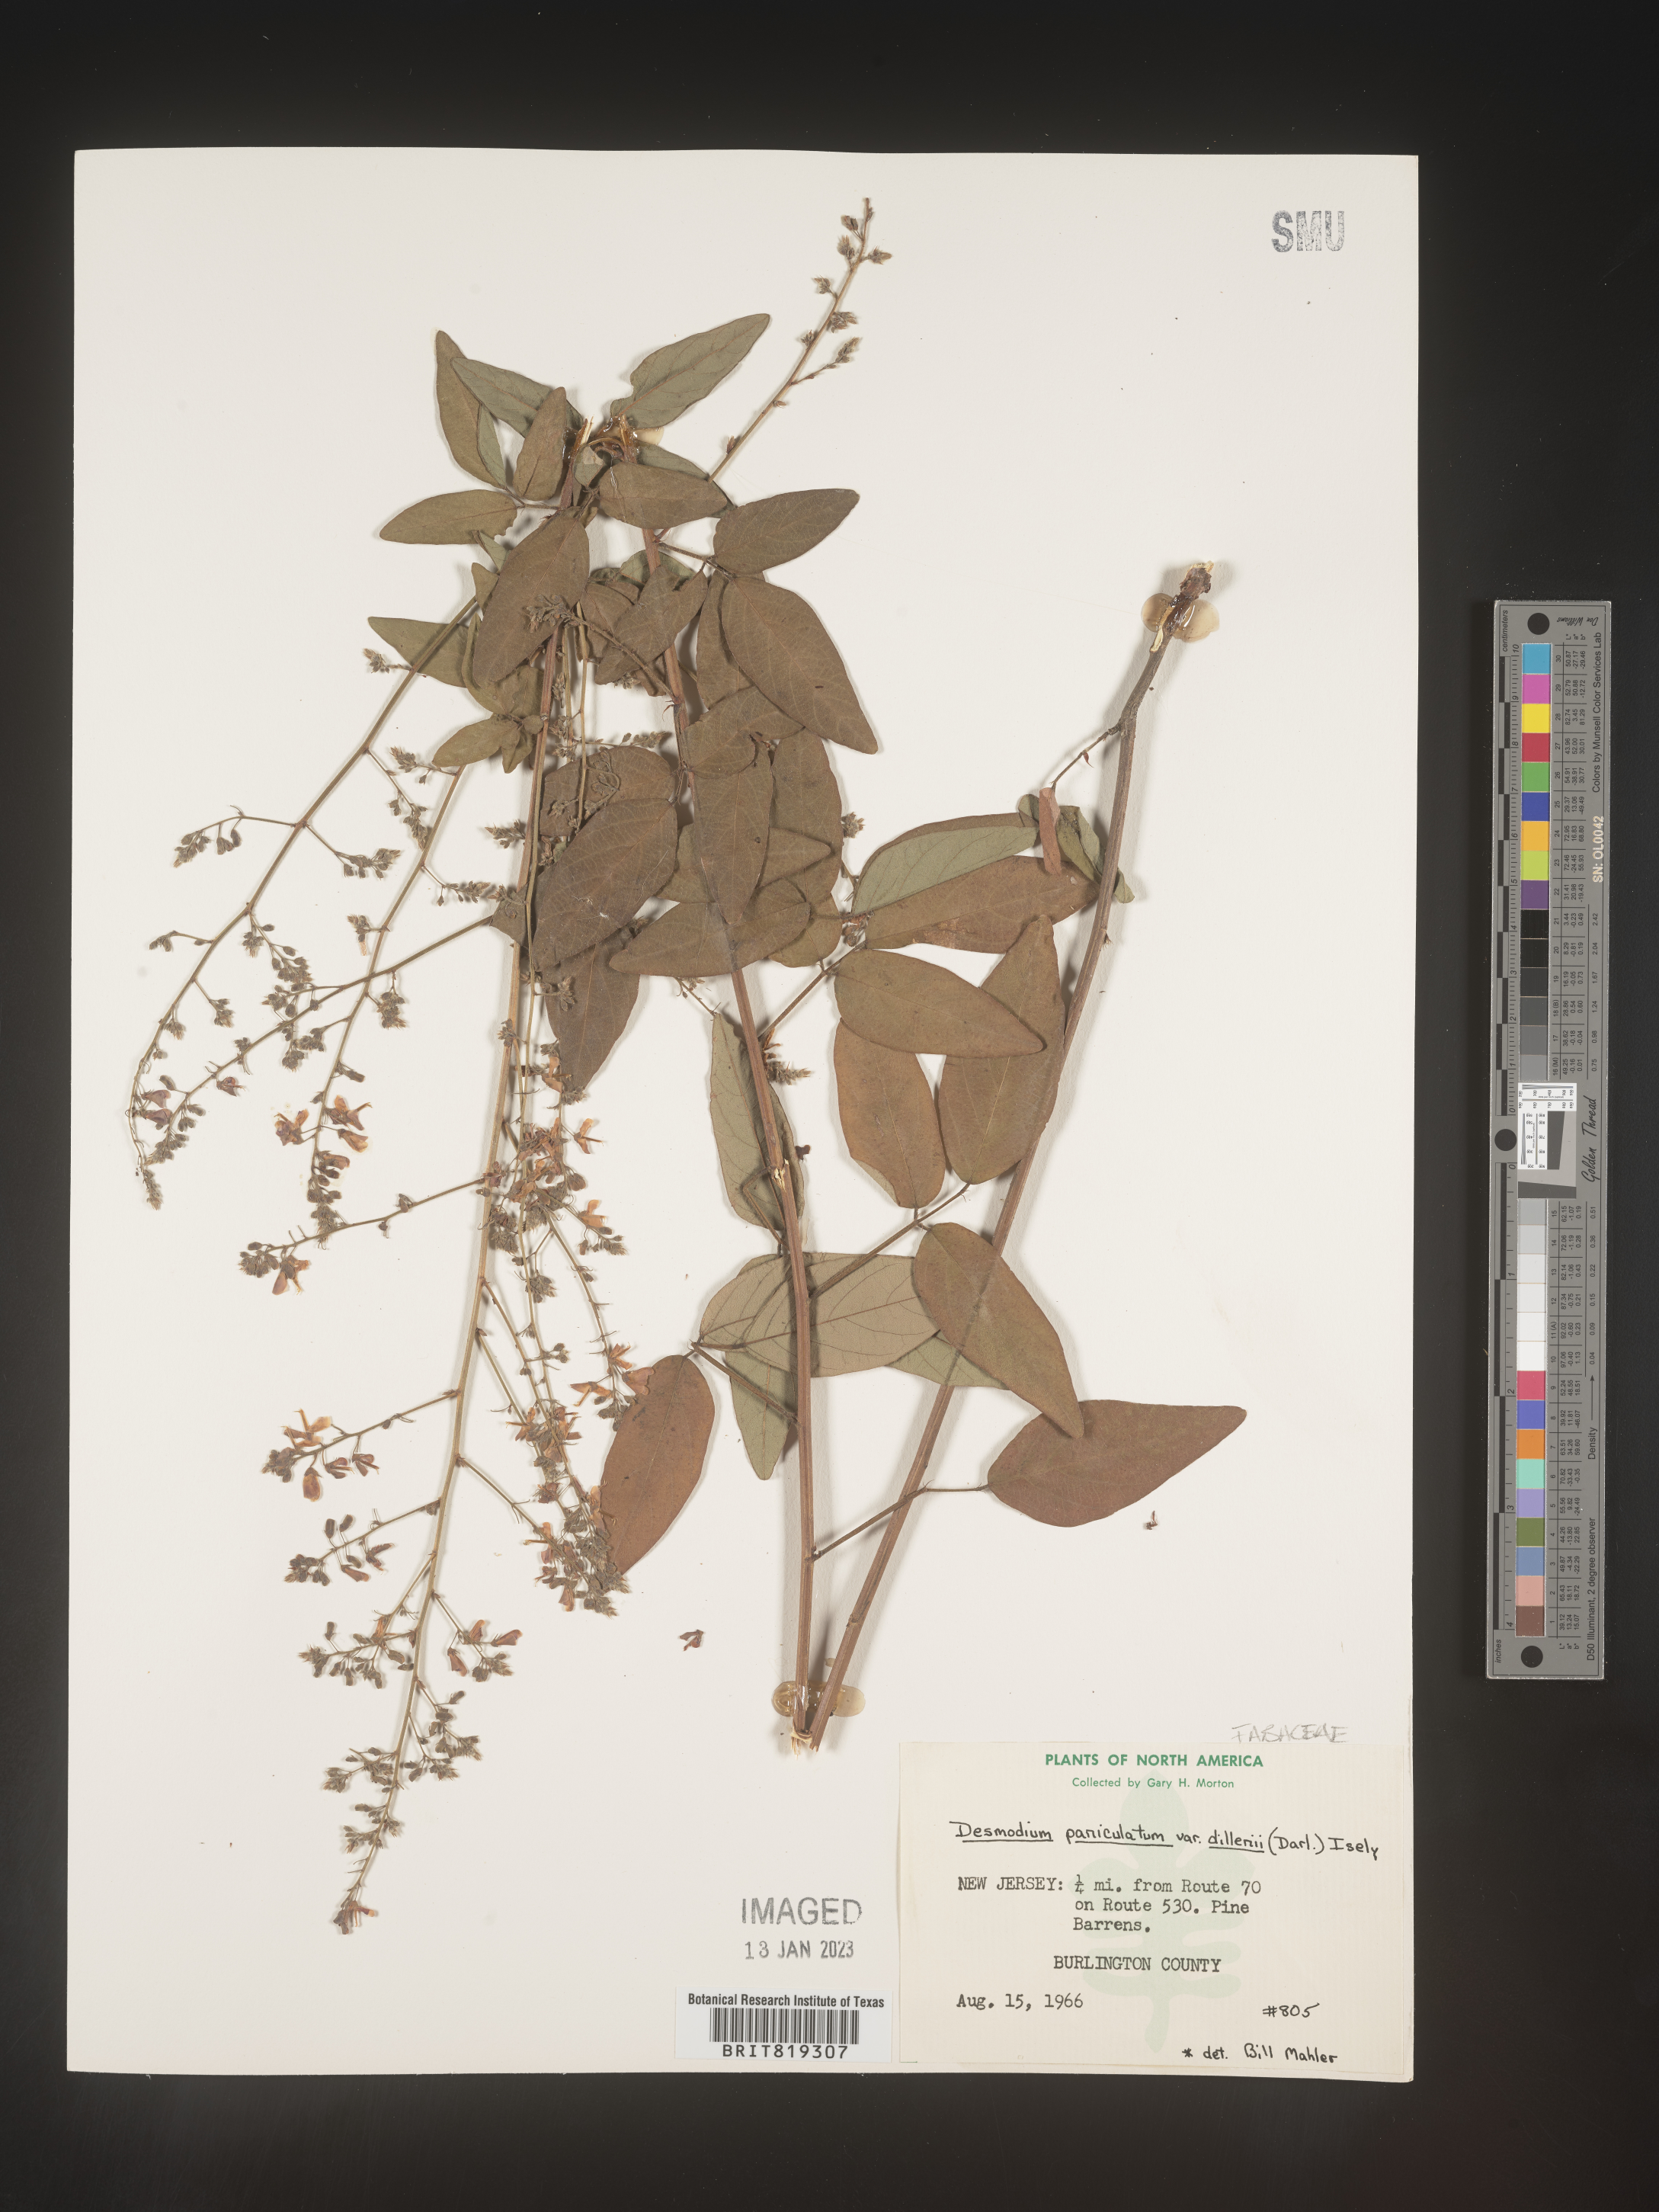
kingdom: Plantae
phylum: Tracheophyta
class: Magnoliopsida
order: Fabales
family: Fabaceae
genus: Desmodium
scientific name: Desmodium paniculatum
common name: Panicled tick-clover
